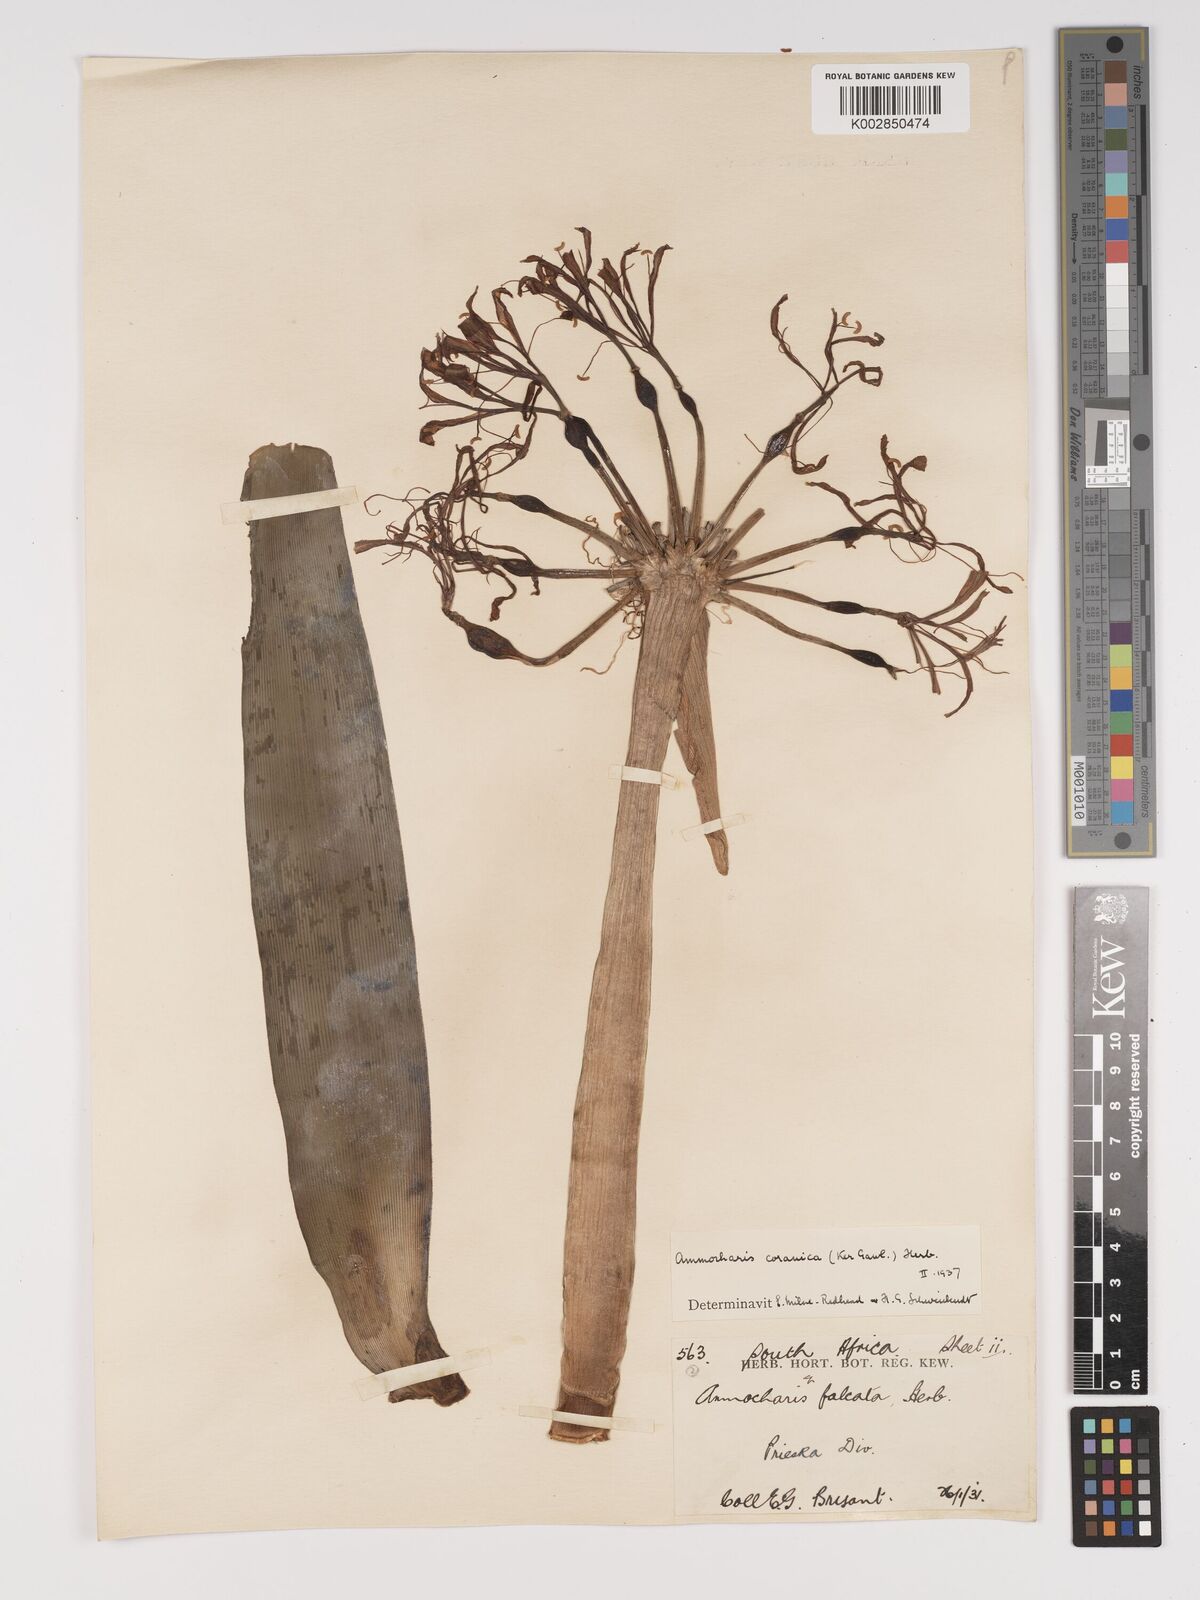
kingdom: Plantae
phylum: Tracheophyta
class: Liliopsida
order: Asparagales
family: Amaryllidaceae
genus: Ammocharis
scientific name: Ammocharis coranica
